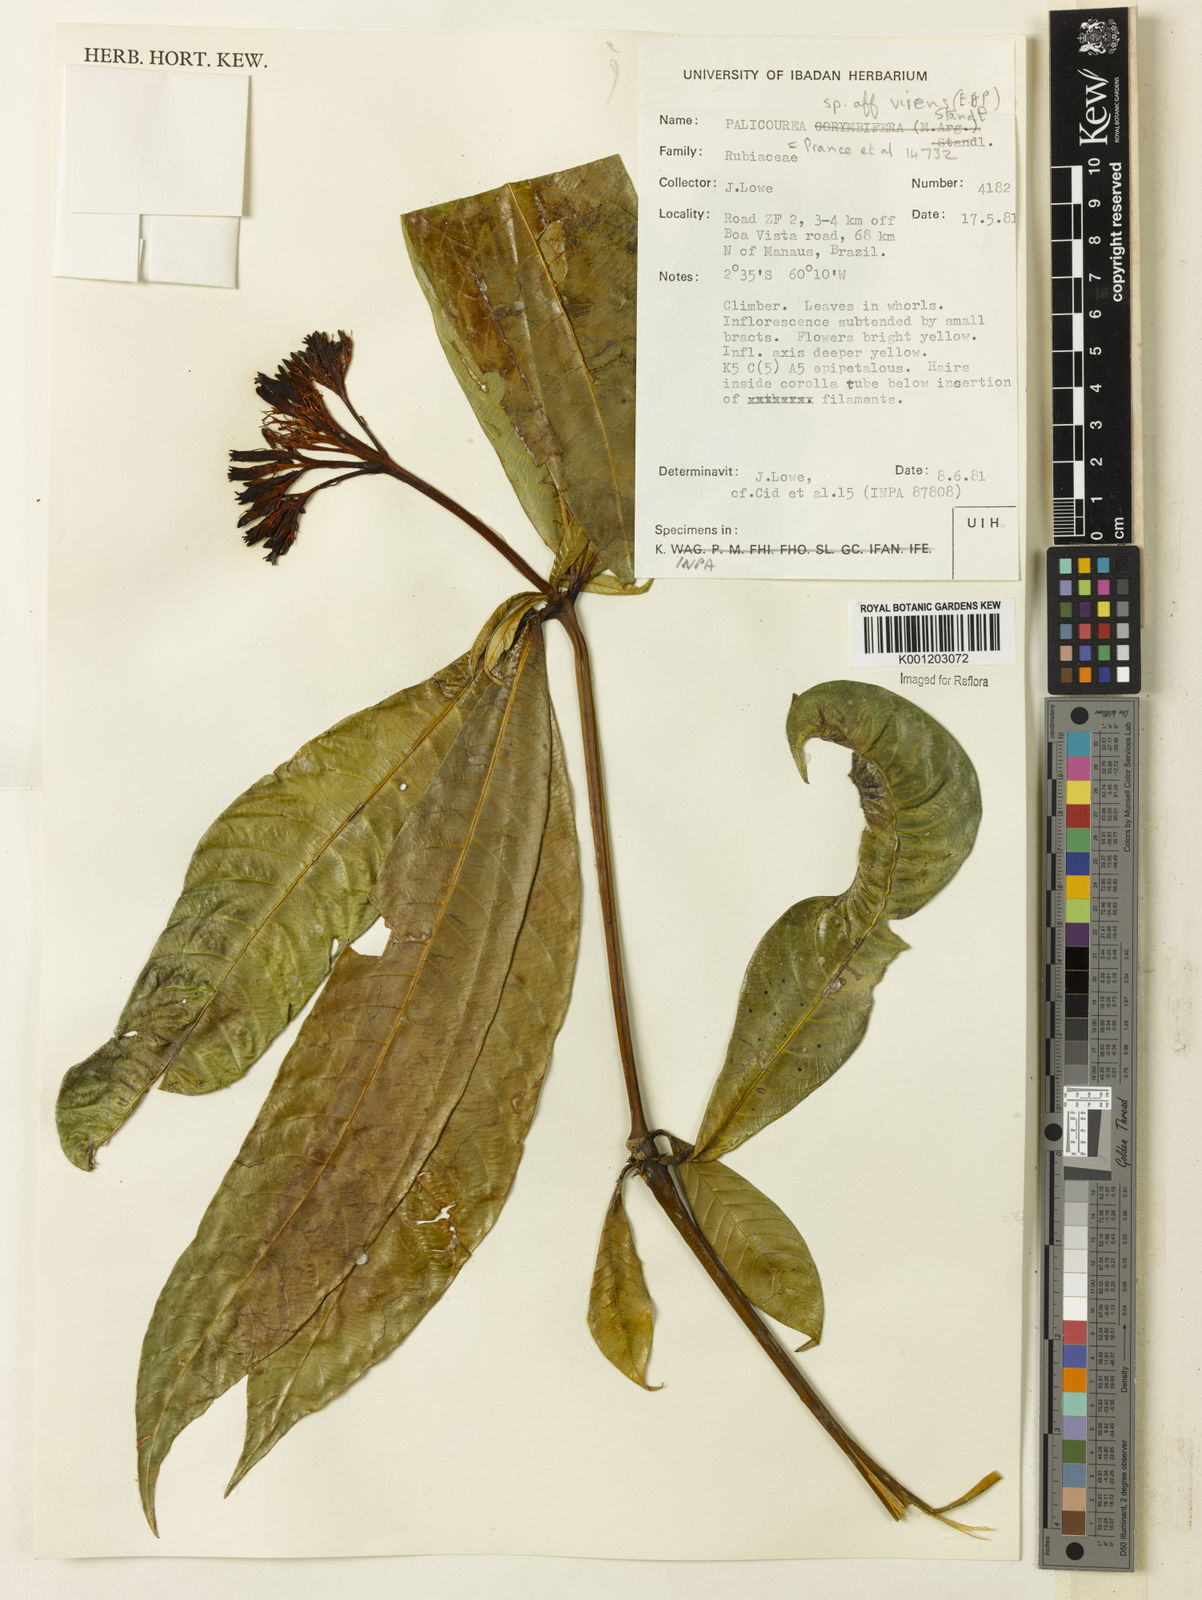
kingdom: Plantae
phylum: Tracheophyta
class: Magnoliopsida
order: Gentianales
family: Rubiaceae
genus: Palicourea
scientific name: Palicourea virens
